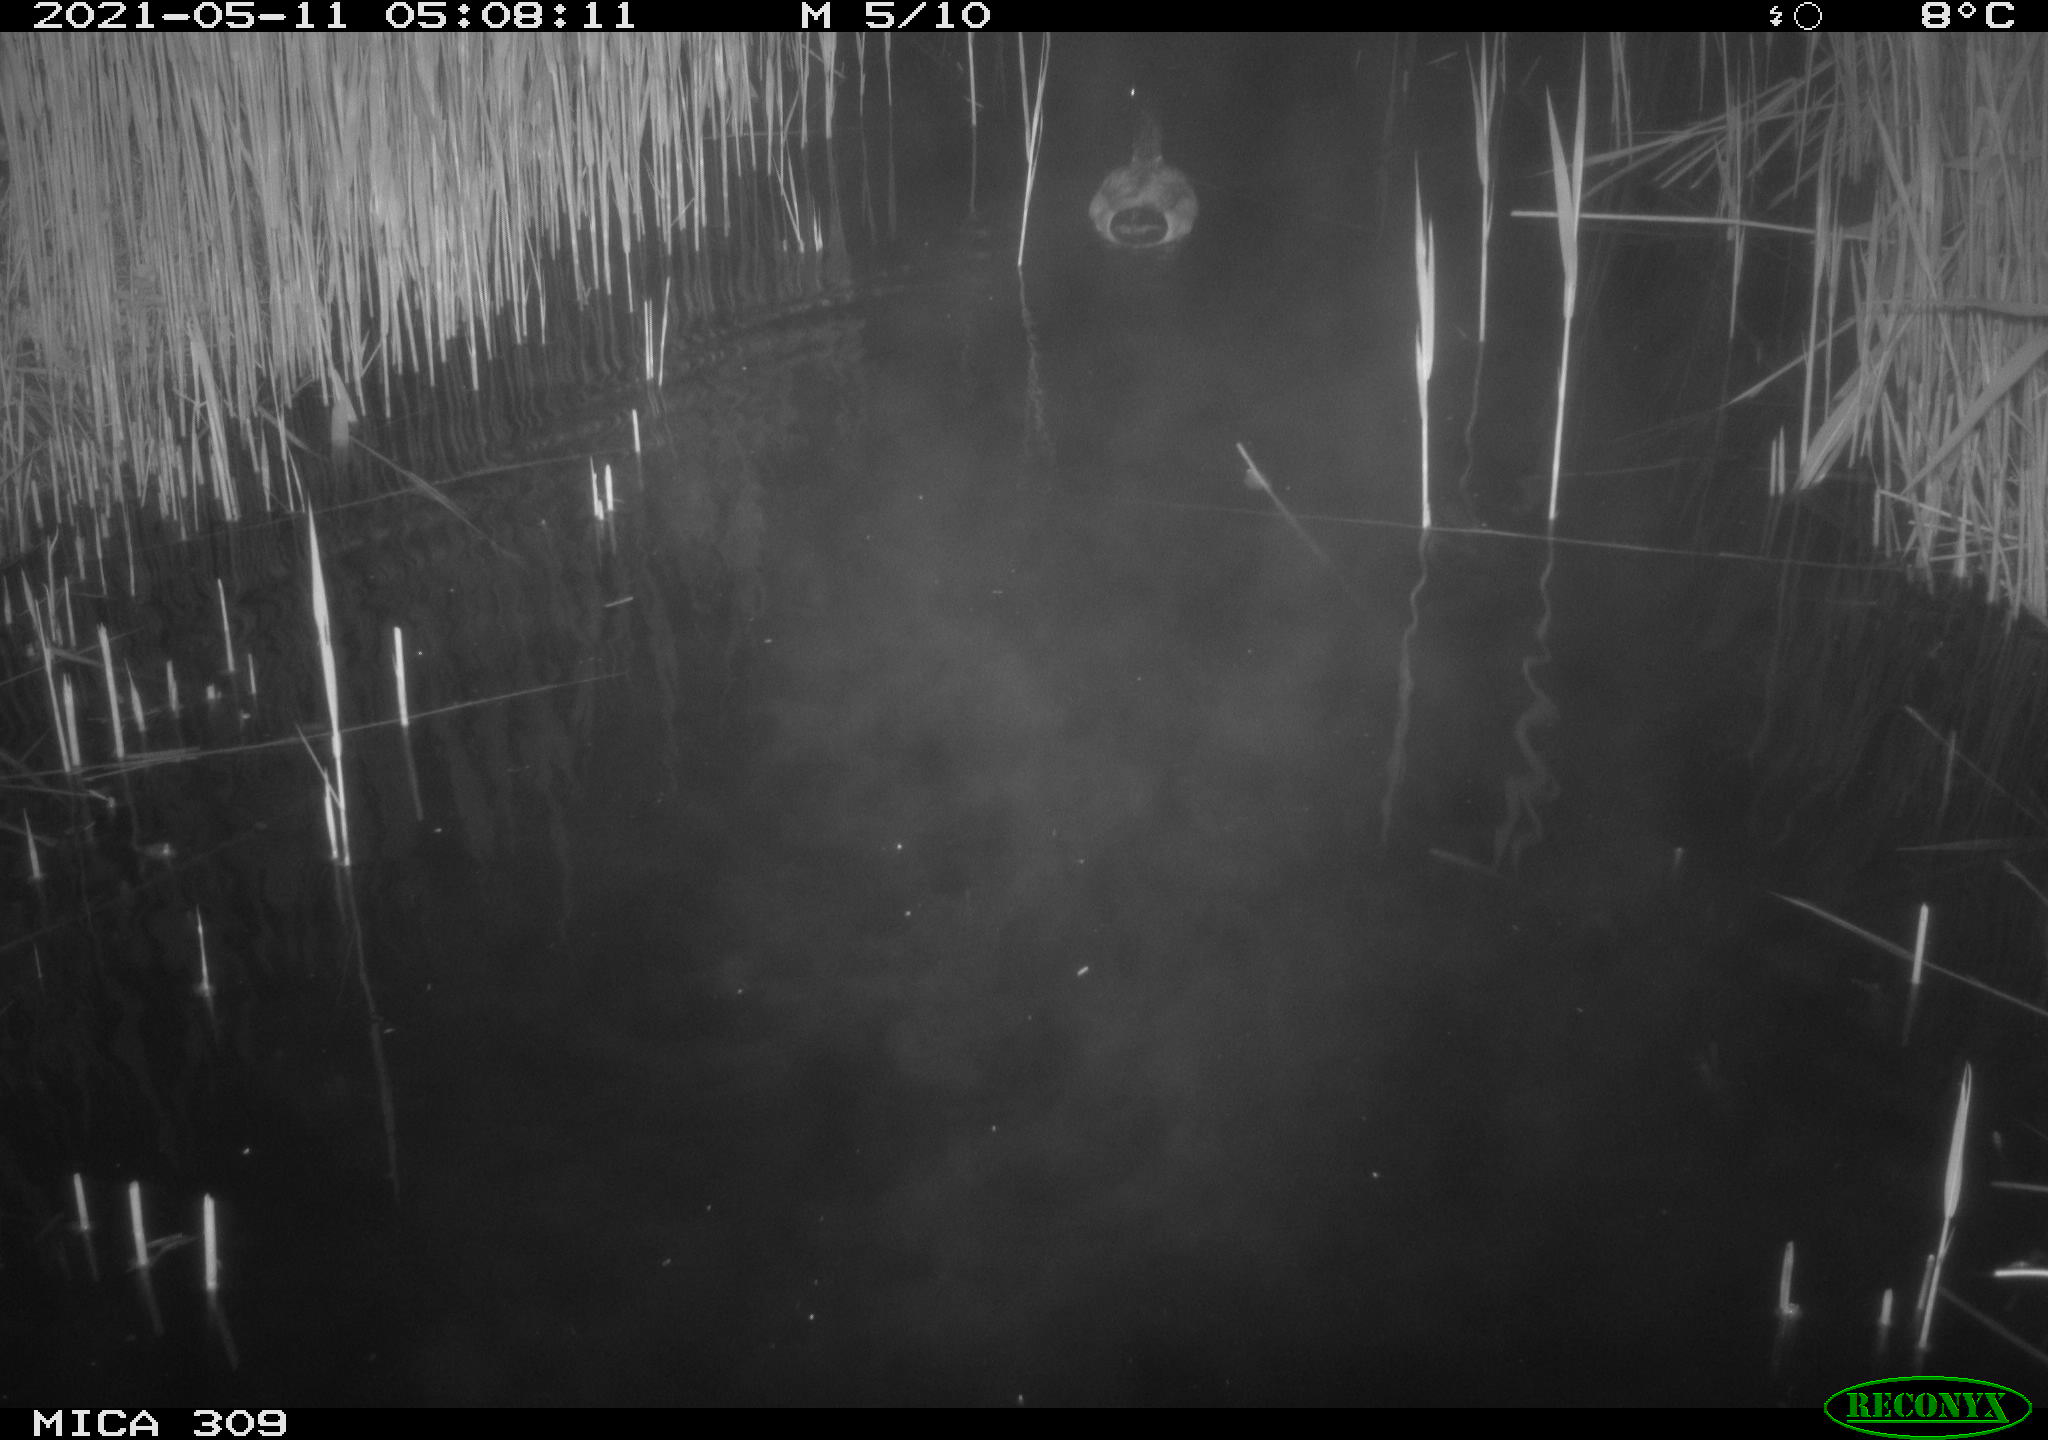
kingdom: Animalia
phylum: Chordata
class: Aves
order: Anseriformes
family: Anatidae
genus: Anas
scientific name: Anas platyrhynchos
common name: Mallard
